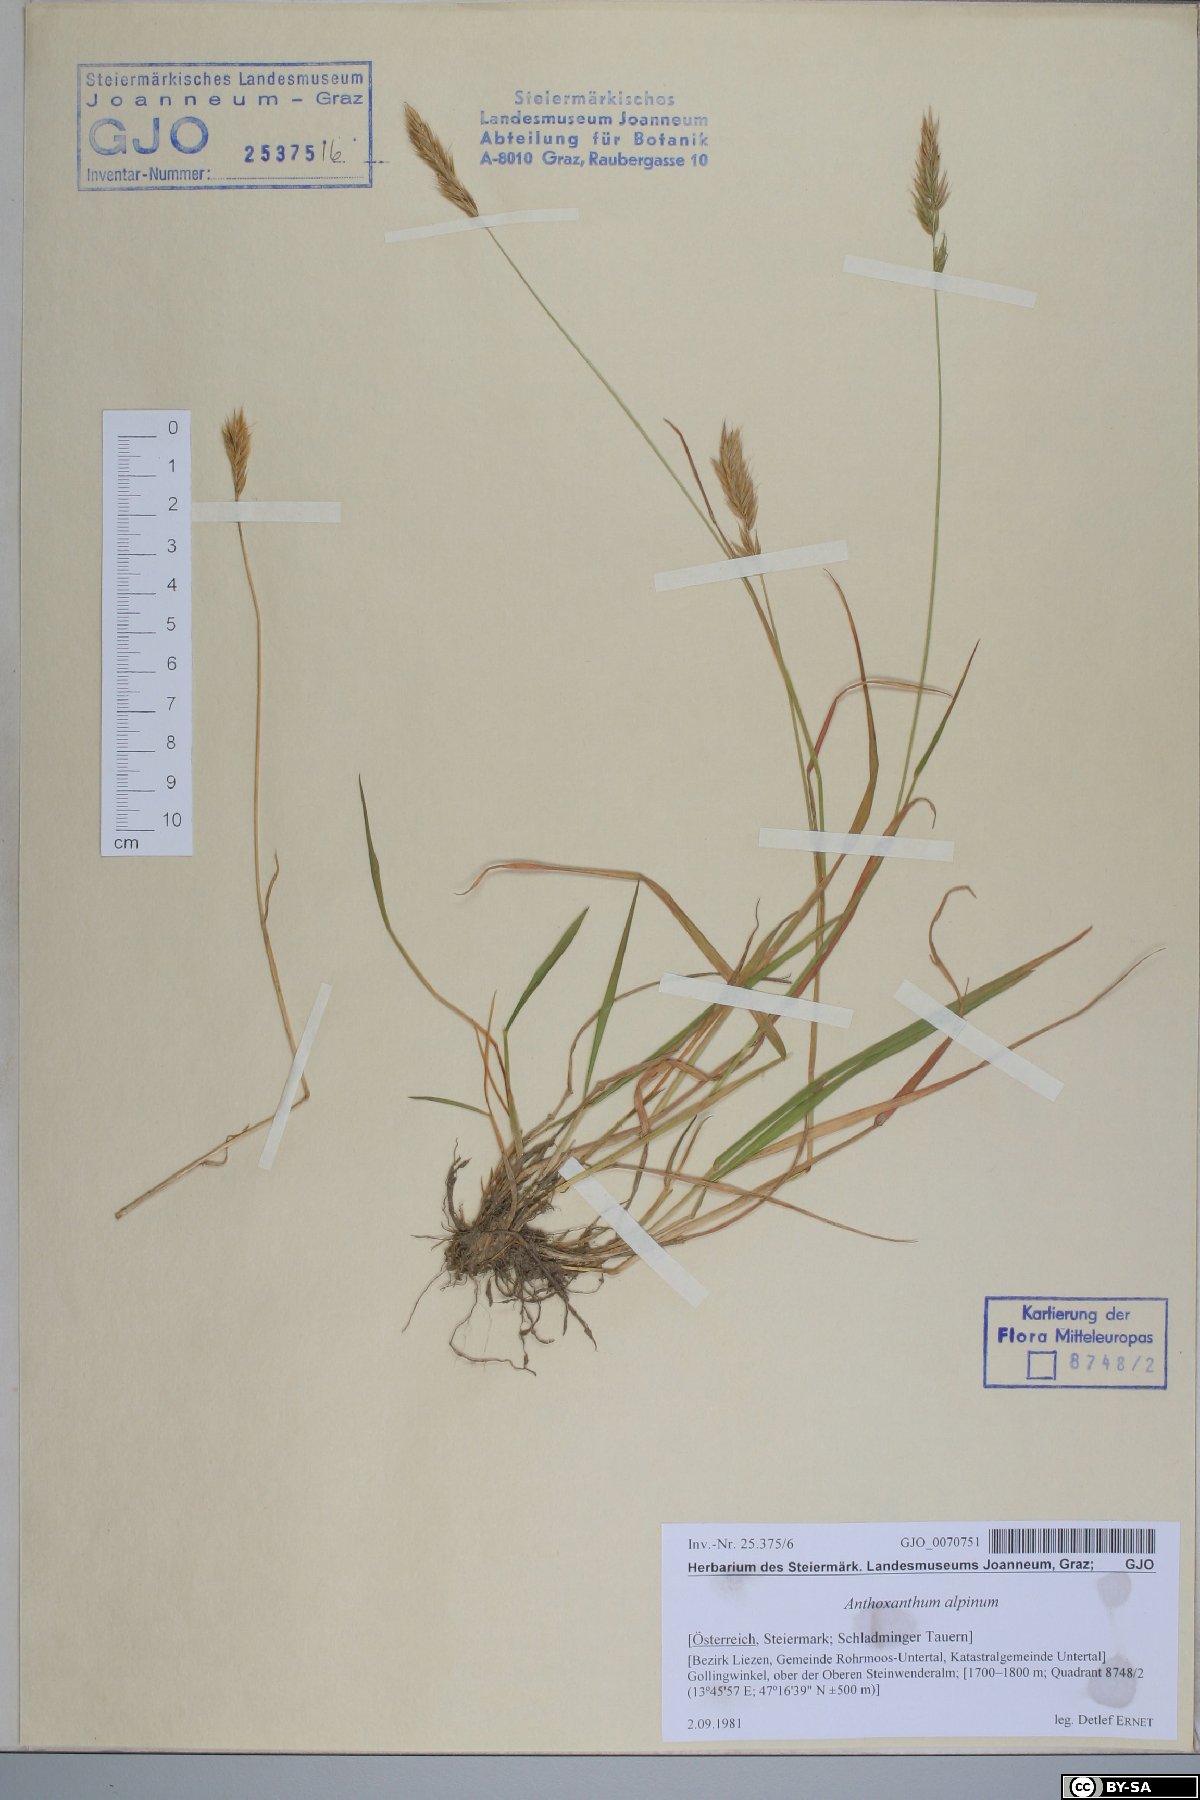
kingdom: Plantae
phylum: Tracheophyta
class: Liliopsida
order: Poales
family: Poaceae
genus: Anthoxanthum
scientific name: Anthoxanthum nipponicum
